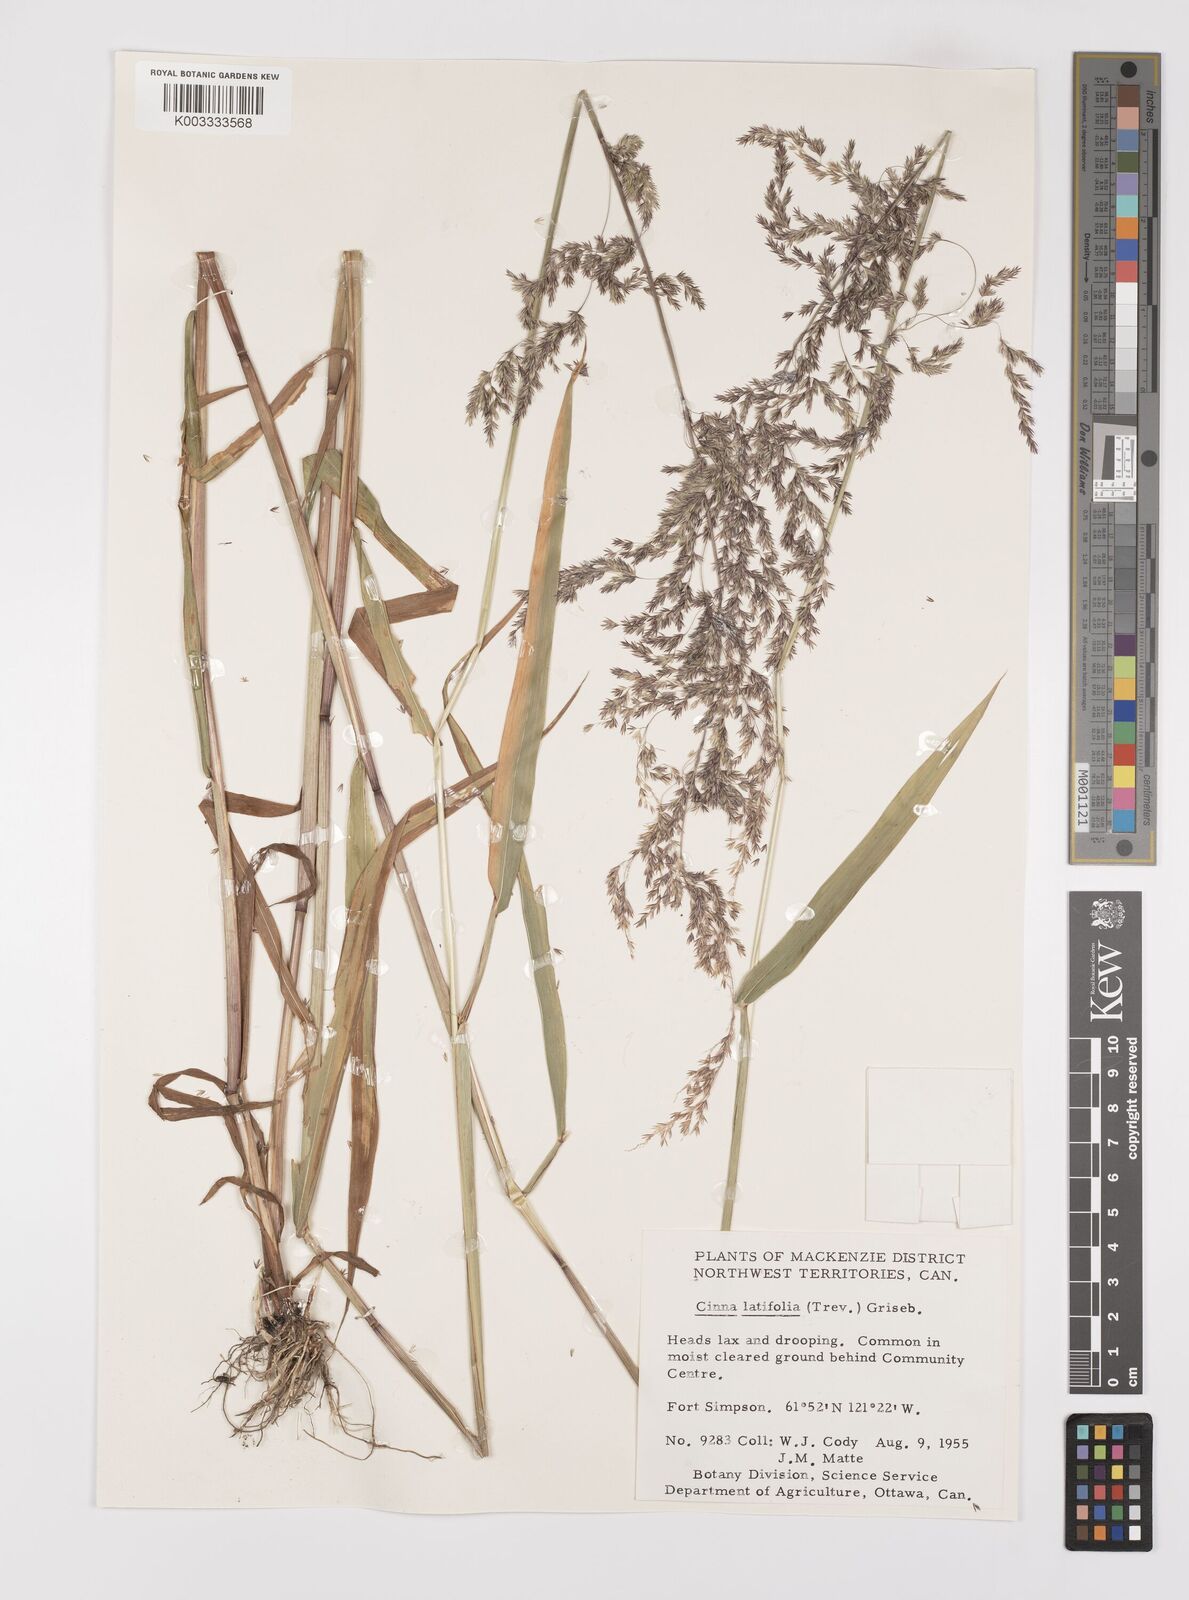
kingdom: Plantae
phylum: Tracheophyta
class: Liliopsida
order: Poales
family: Poaceae
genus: Cinna
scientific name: Cinna latifolia
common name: Drooping woodreed
